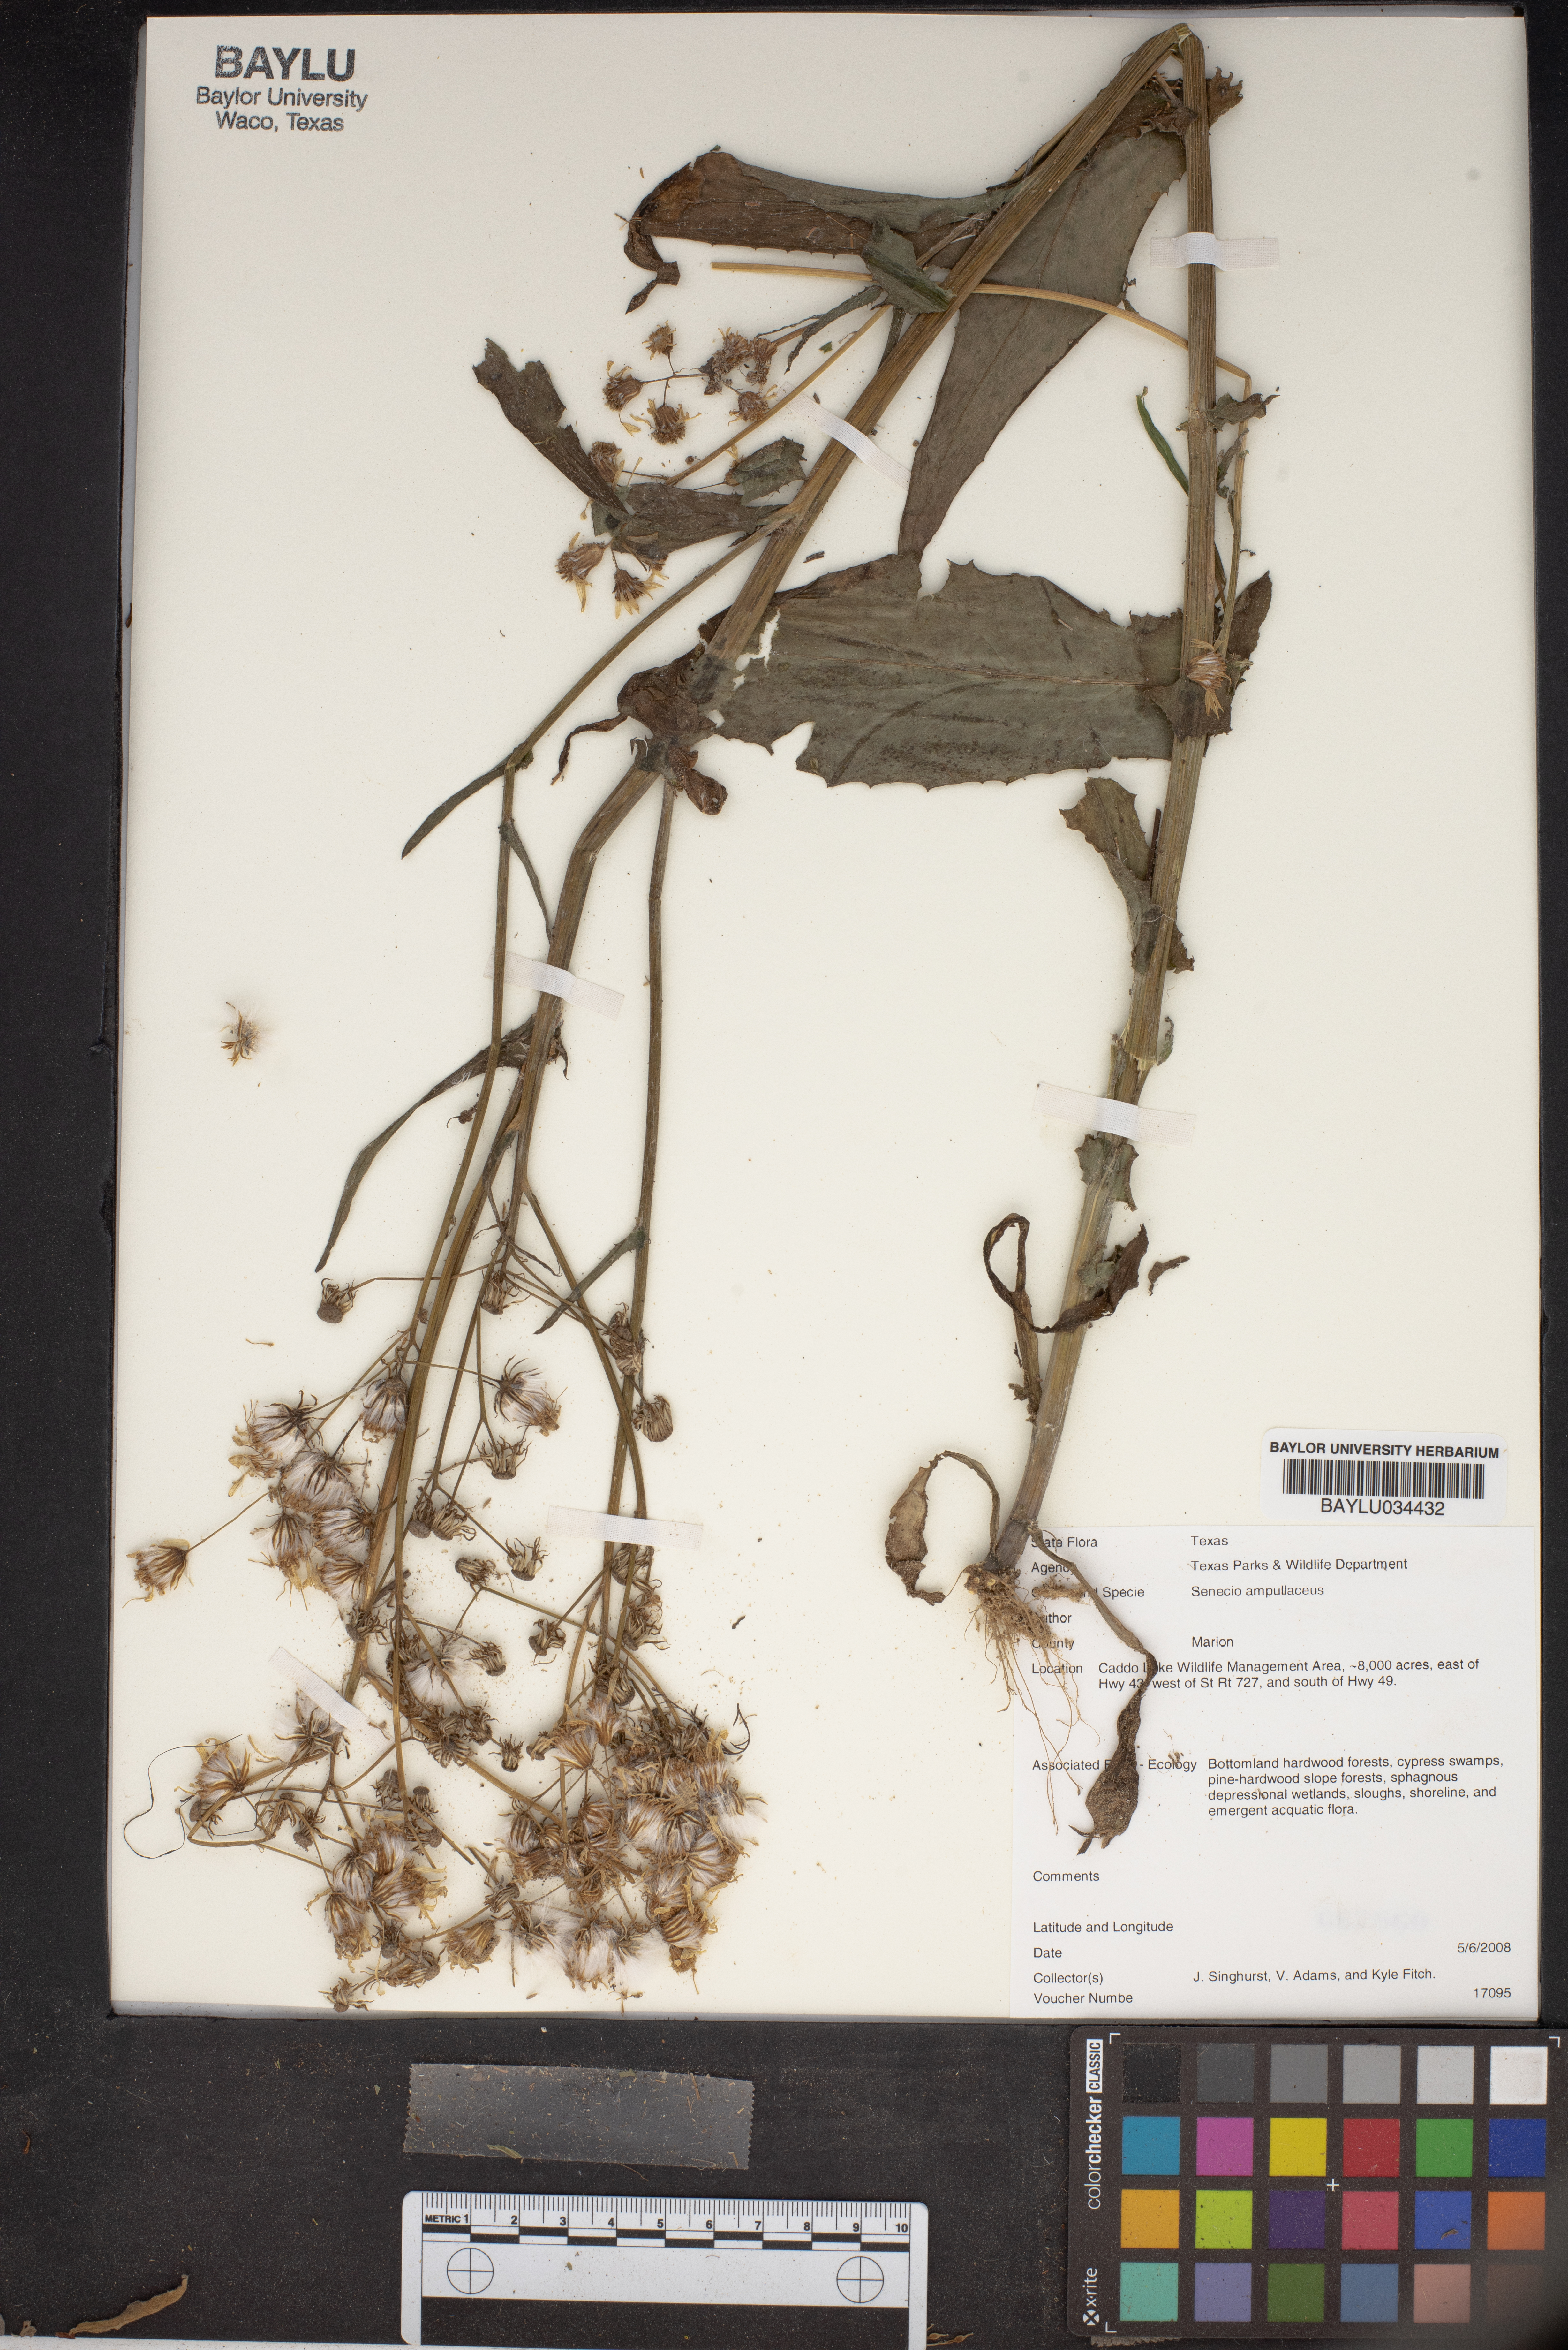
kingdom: Plantae
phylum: Tracheophyta
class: Magnoliopsida
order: Asterales
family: Asteraceae
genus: Senecio
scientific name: Senecio ampullaceus
